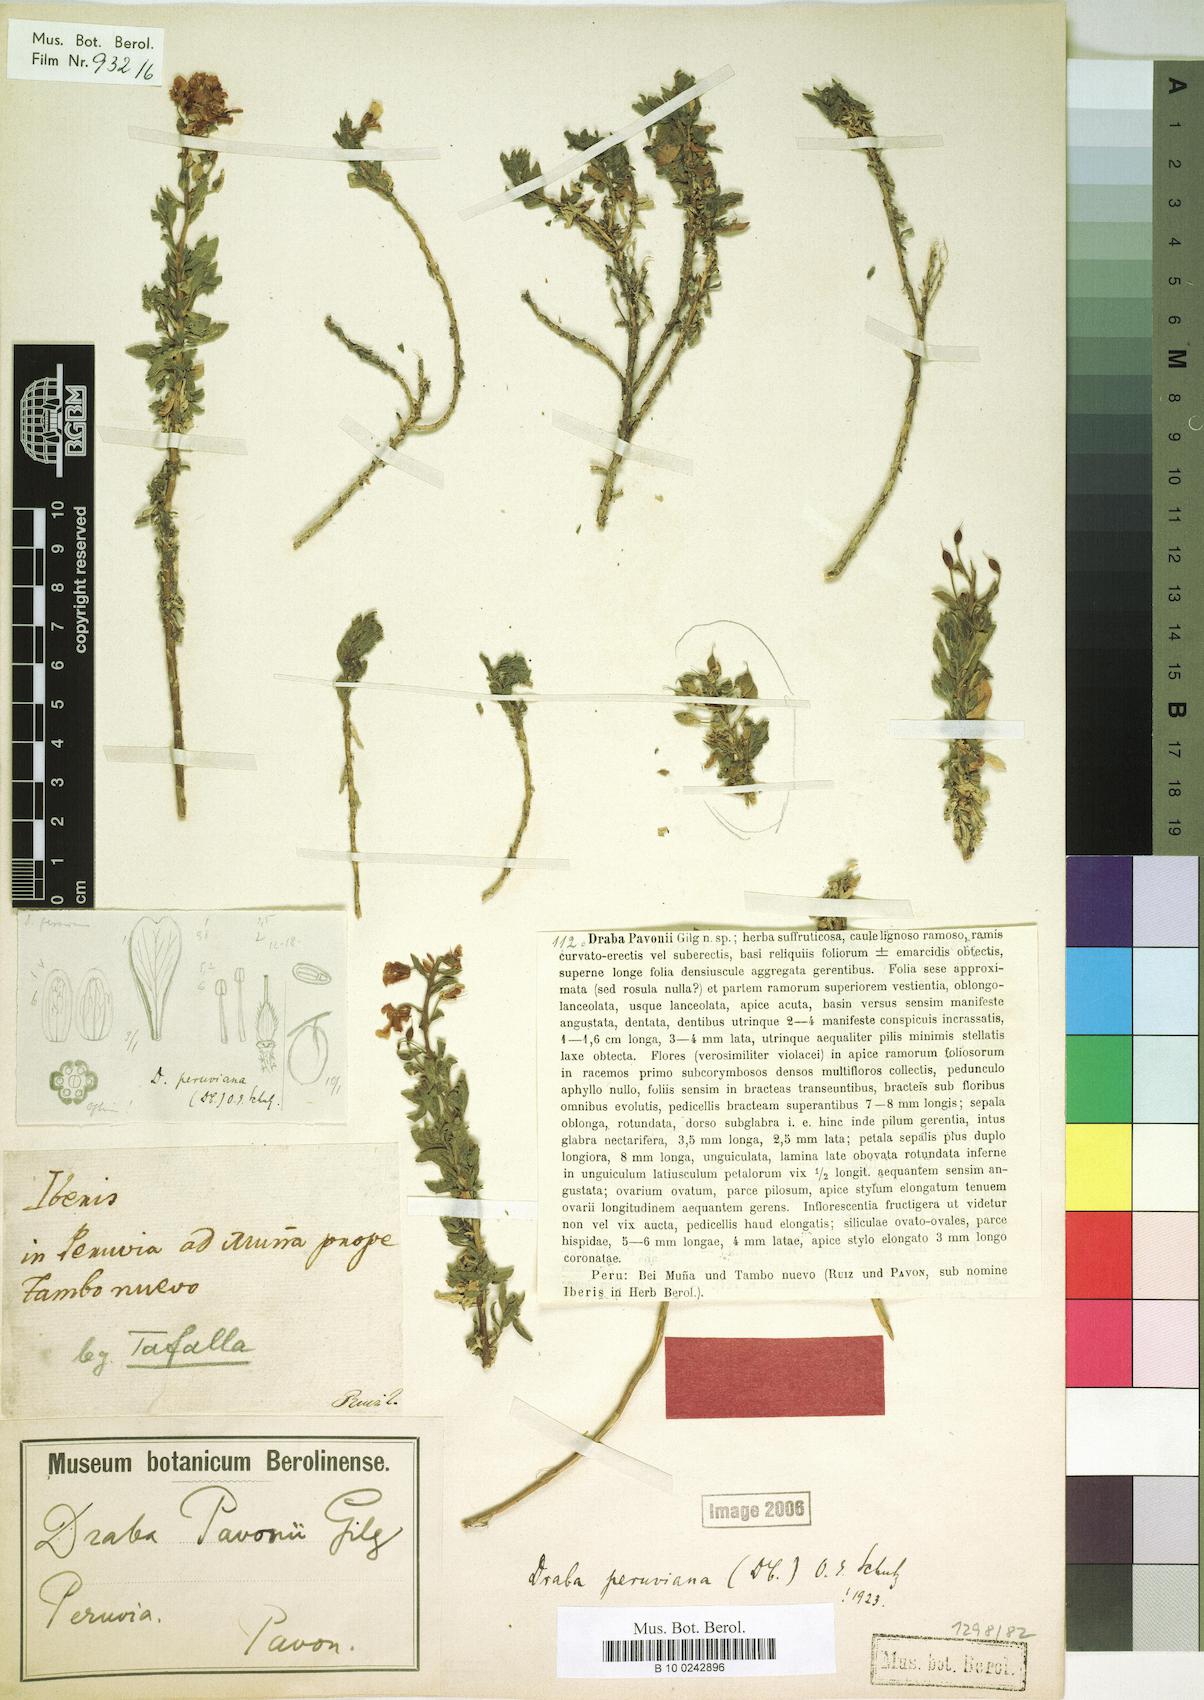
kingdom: Plantae
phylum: Tracheophyta
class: Magnoliopsida
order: Brassicales
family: Brassicaceae
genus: Draba
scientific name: Draba peruviana
